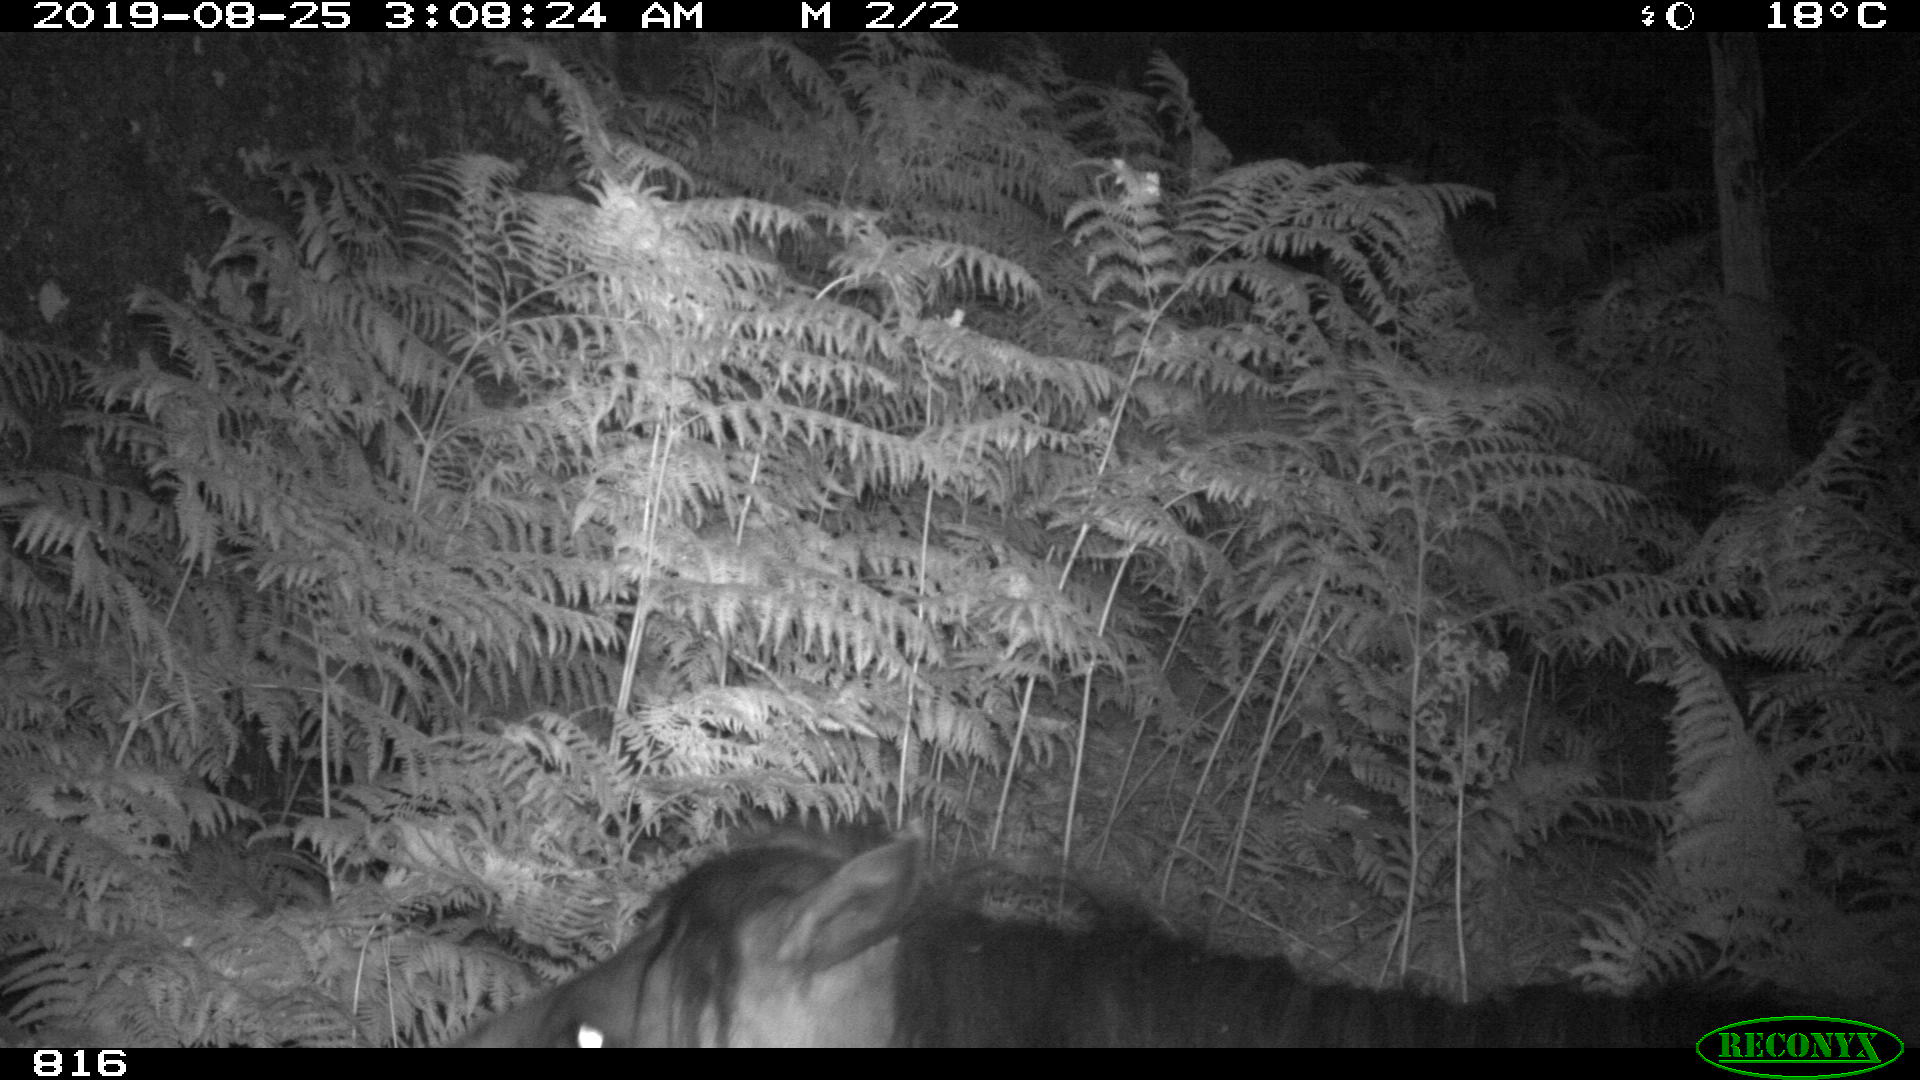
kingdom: Animalia
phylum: Chordata
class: Mammalia
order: Perissodactyla
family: Equidae
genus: Equus
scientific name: Equus caballus
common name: Horse
